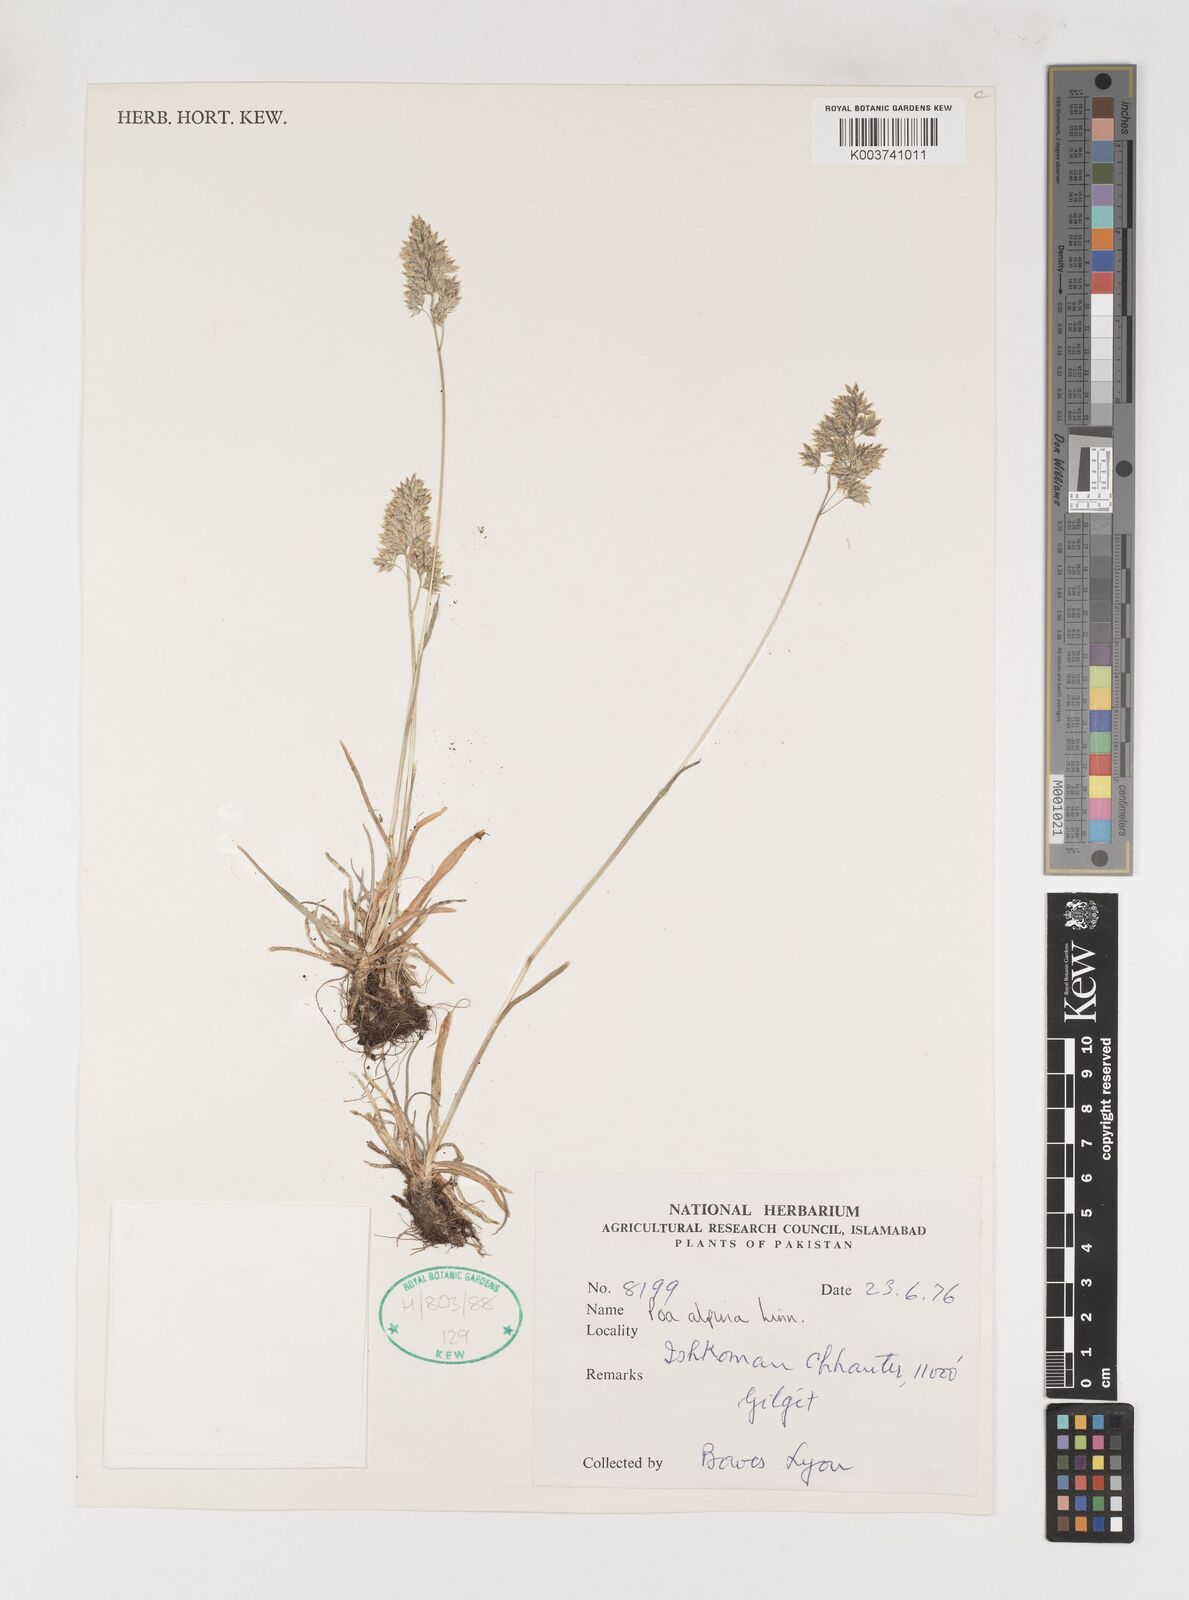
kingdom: Plantae
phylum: Tracheophyta
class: Liliopsida
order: Poales
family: Poaceae
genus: Poa
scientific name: Poa alpina
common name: Alpine bluegrass
